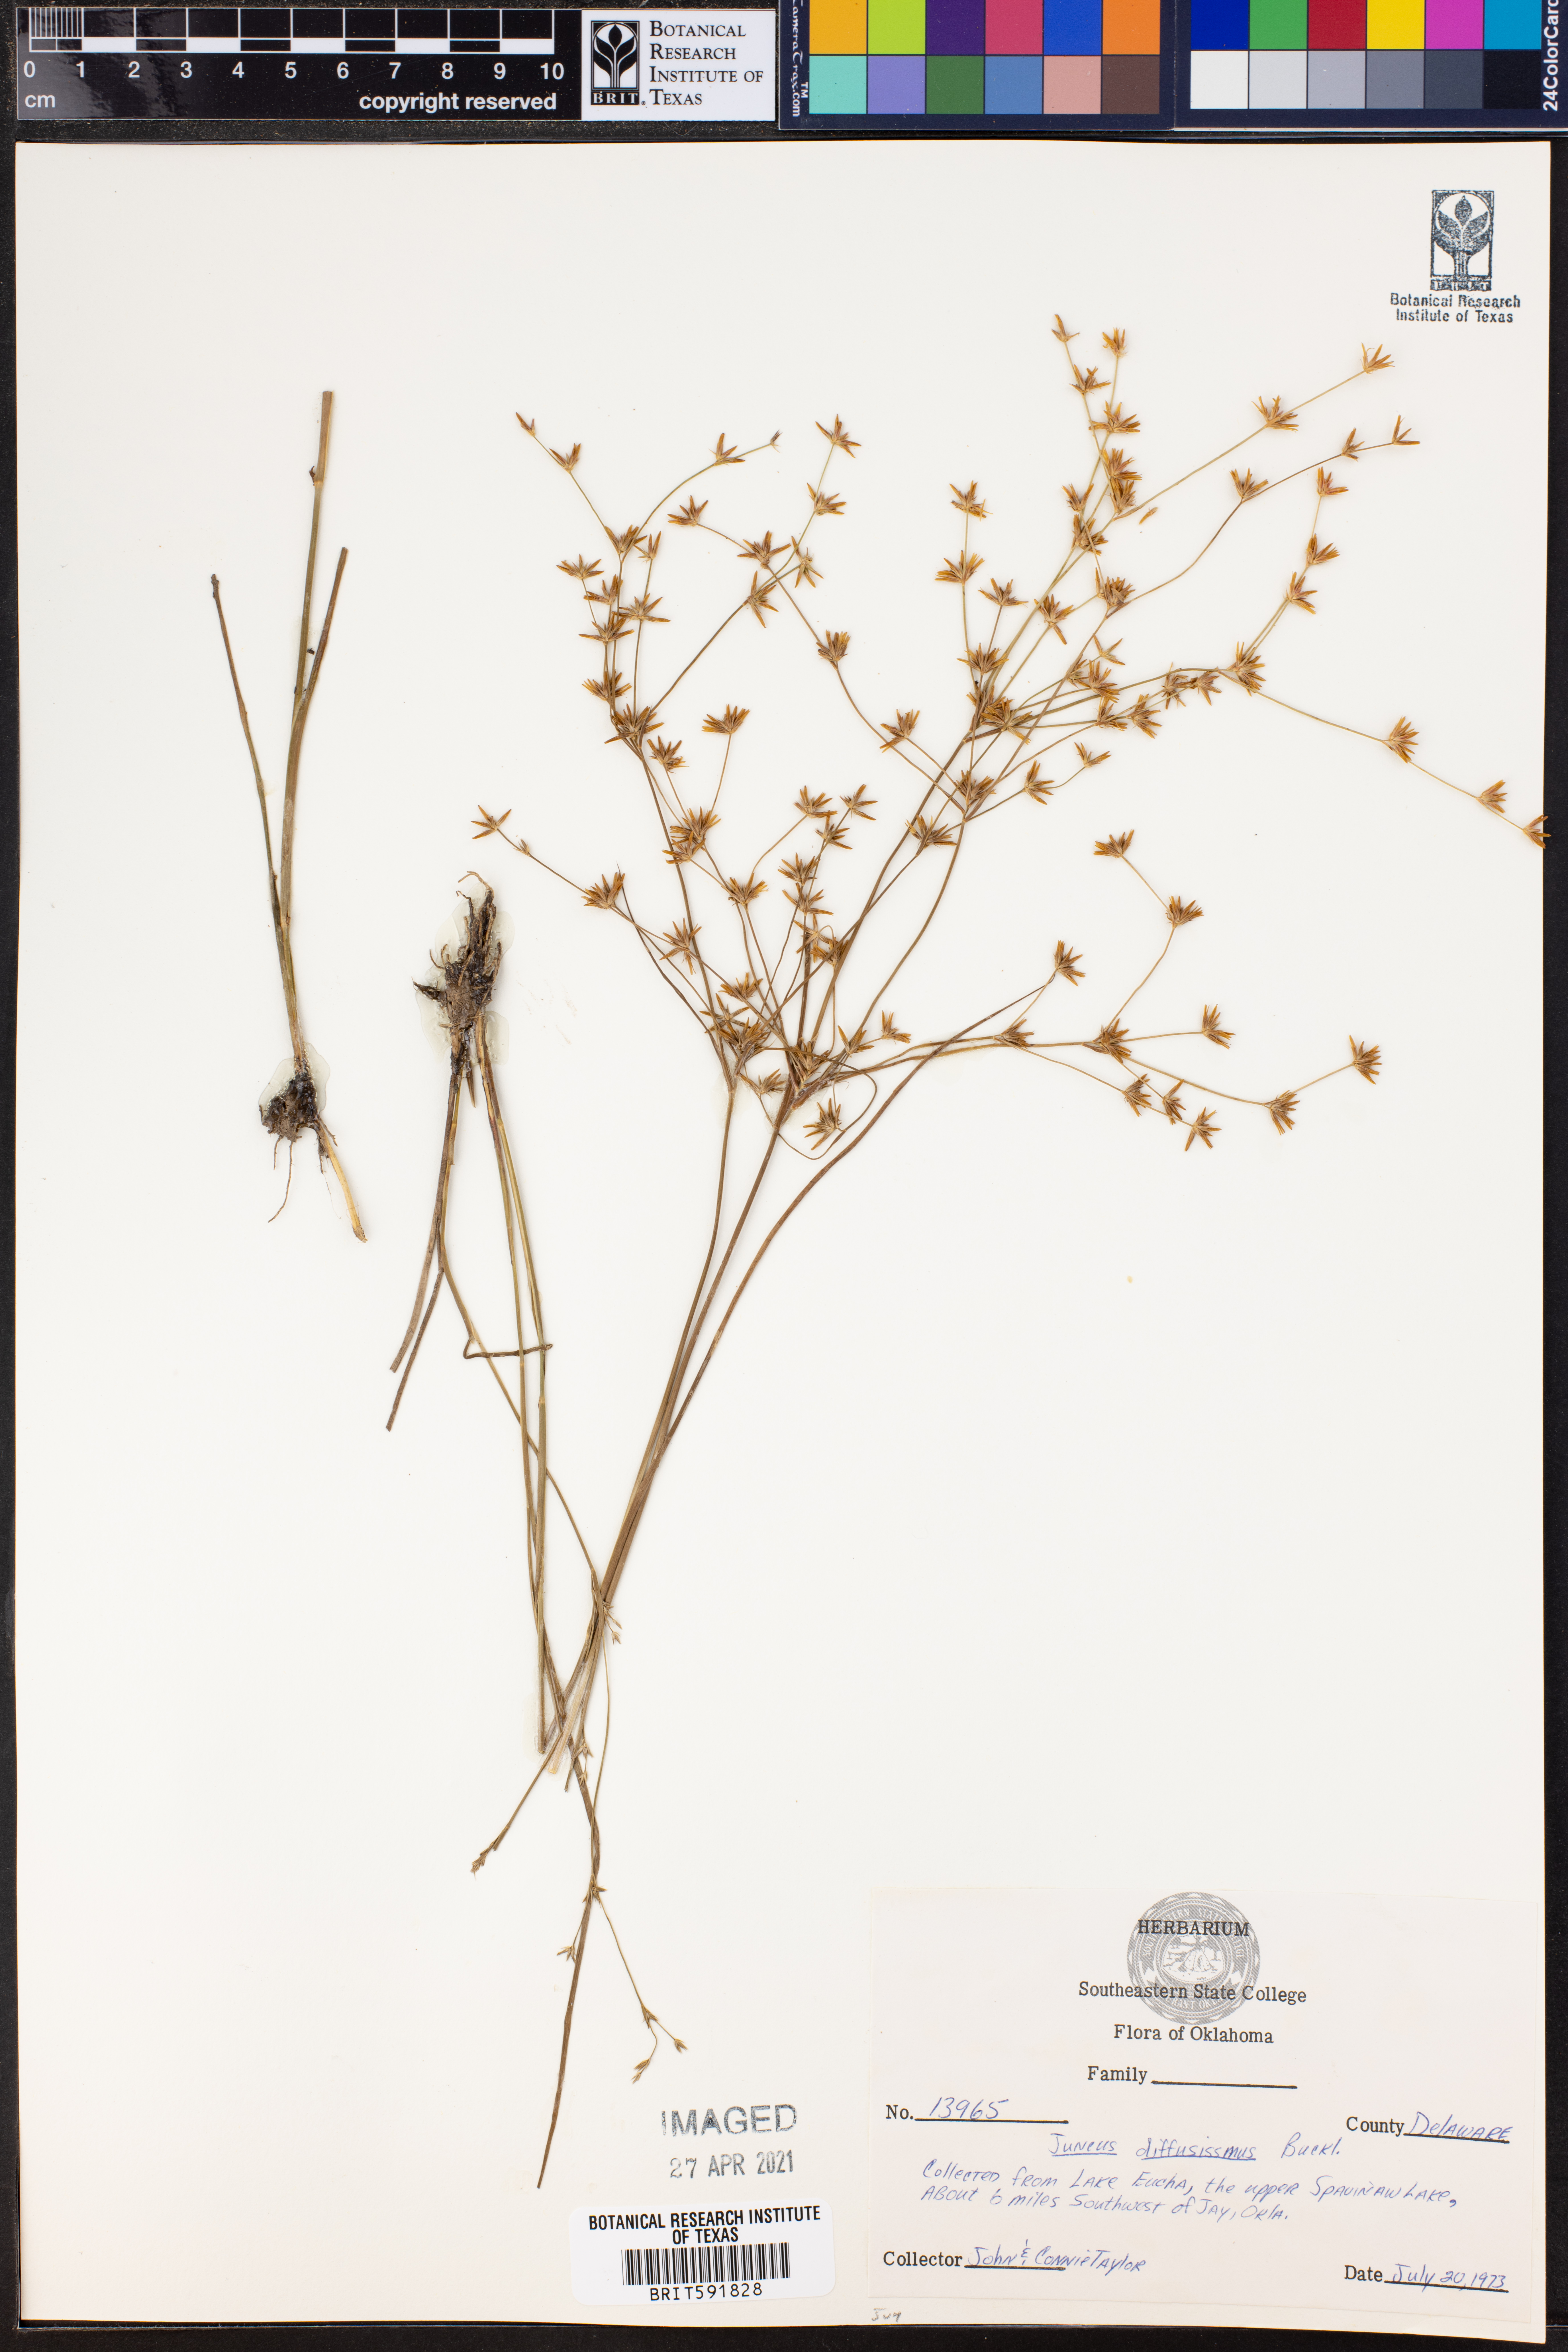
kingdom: Plantae
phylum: Tracheophyta
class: Liliopsida
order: Poales
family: Juncaceae
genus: Juncus
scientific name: Juncus diffusissimus
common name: Slimpod rush
